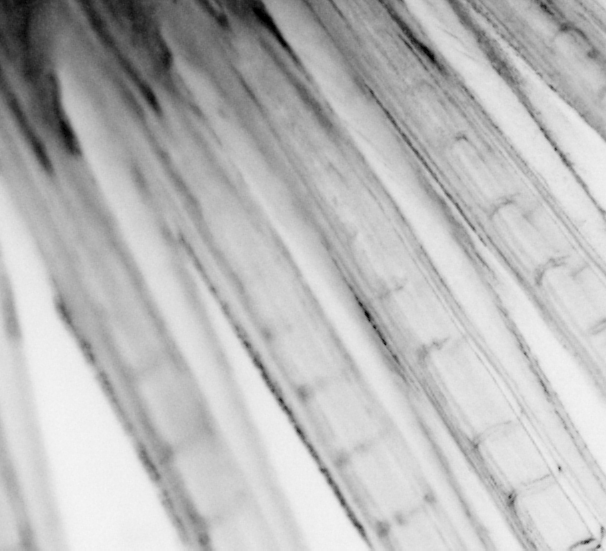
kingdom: Animalia
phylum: Chordata
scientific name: Chordata
